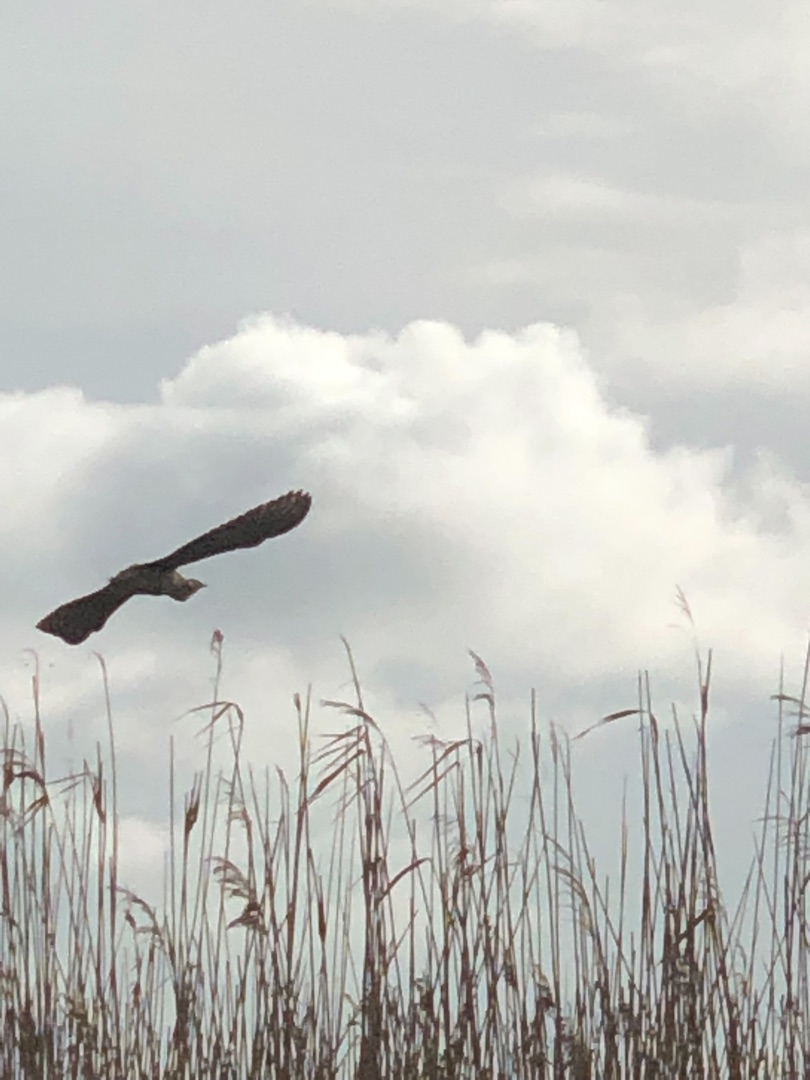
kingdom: Animalia
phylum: Chordata
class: Aves
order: Pelecaniformes
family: Ardeidae
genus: Botaurus
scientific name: Botaurus stellaris
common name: Rørdrum
